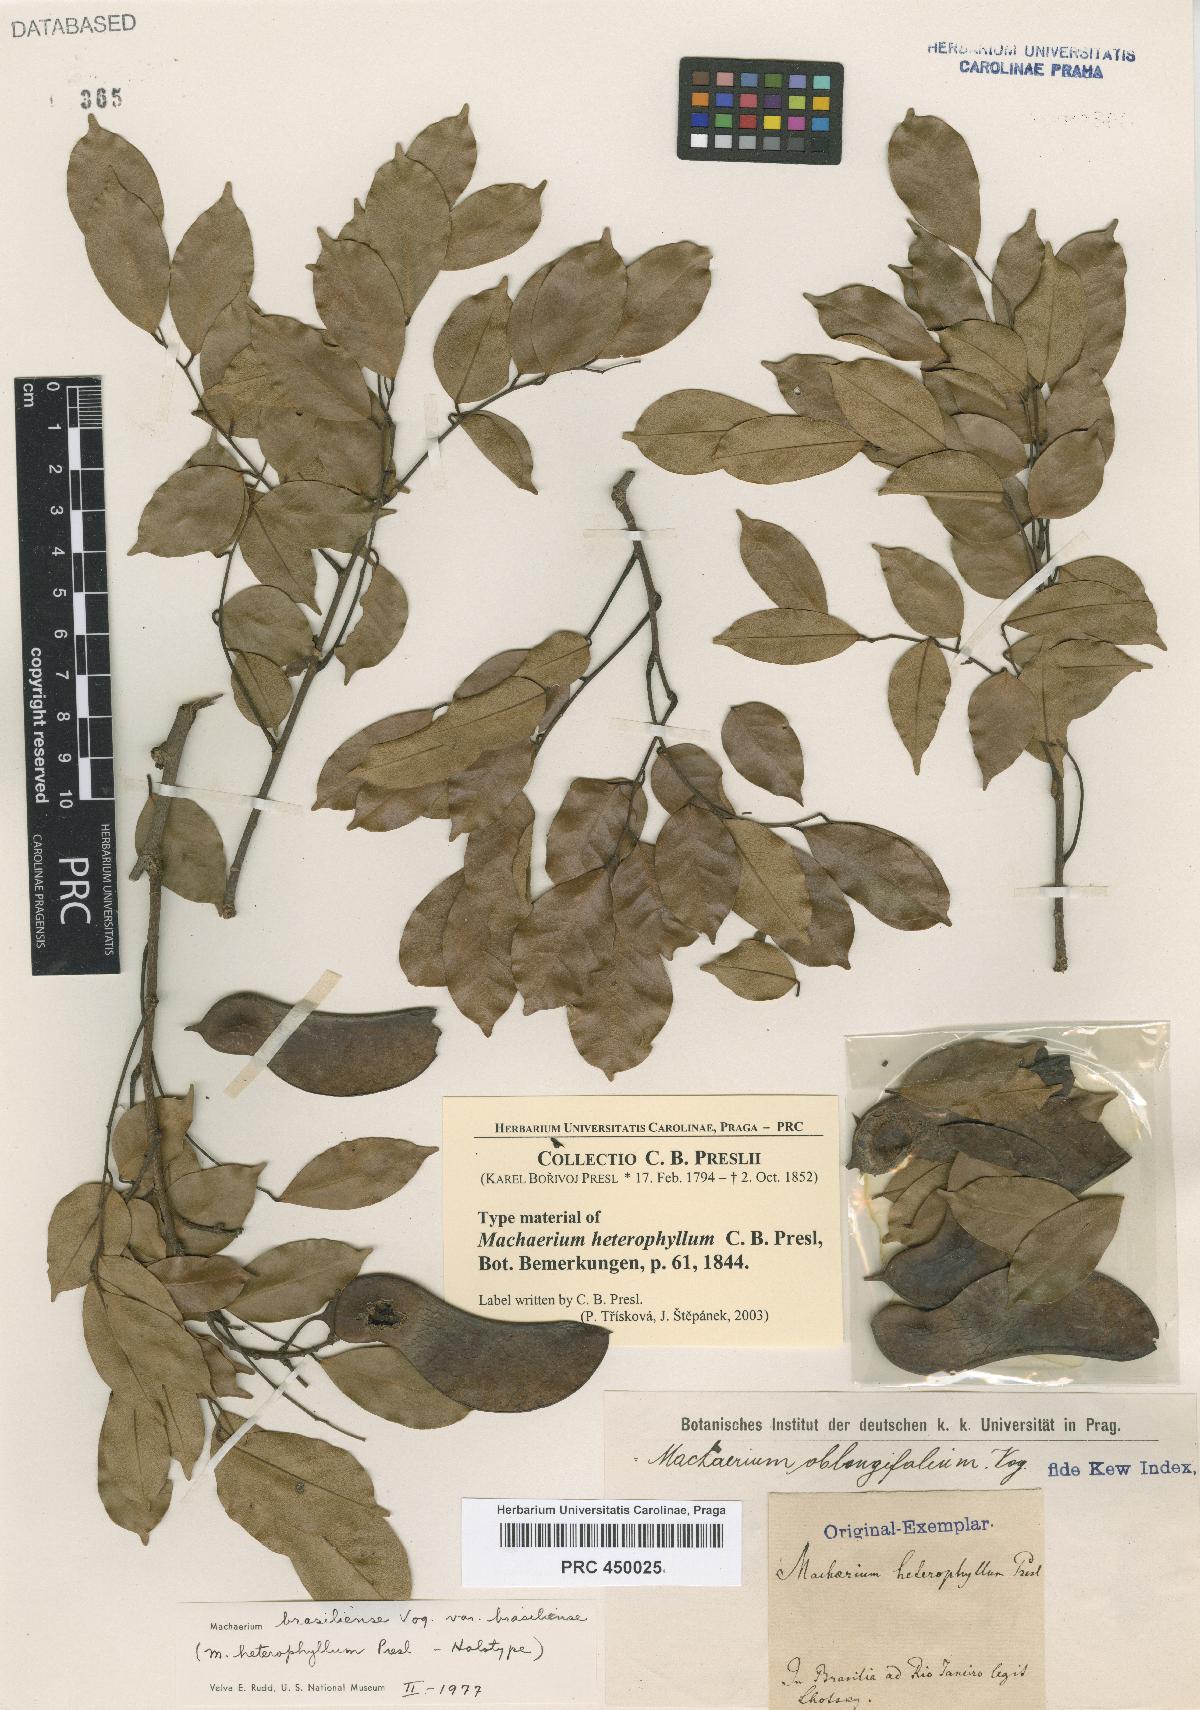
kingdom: Plantae
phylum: Tracheophyta
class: Magnoliopsida
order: Fabales
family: Fabaceae
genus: Machaerium
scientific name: Machaerium oblongifolium
